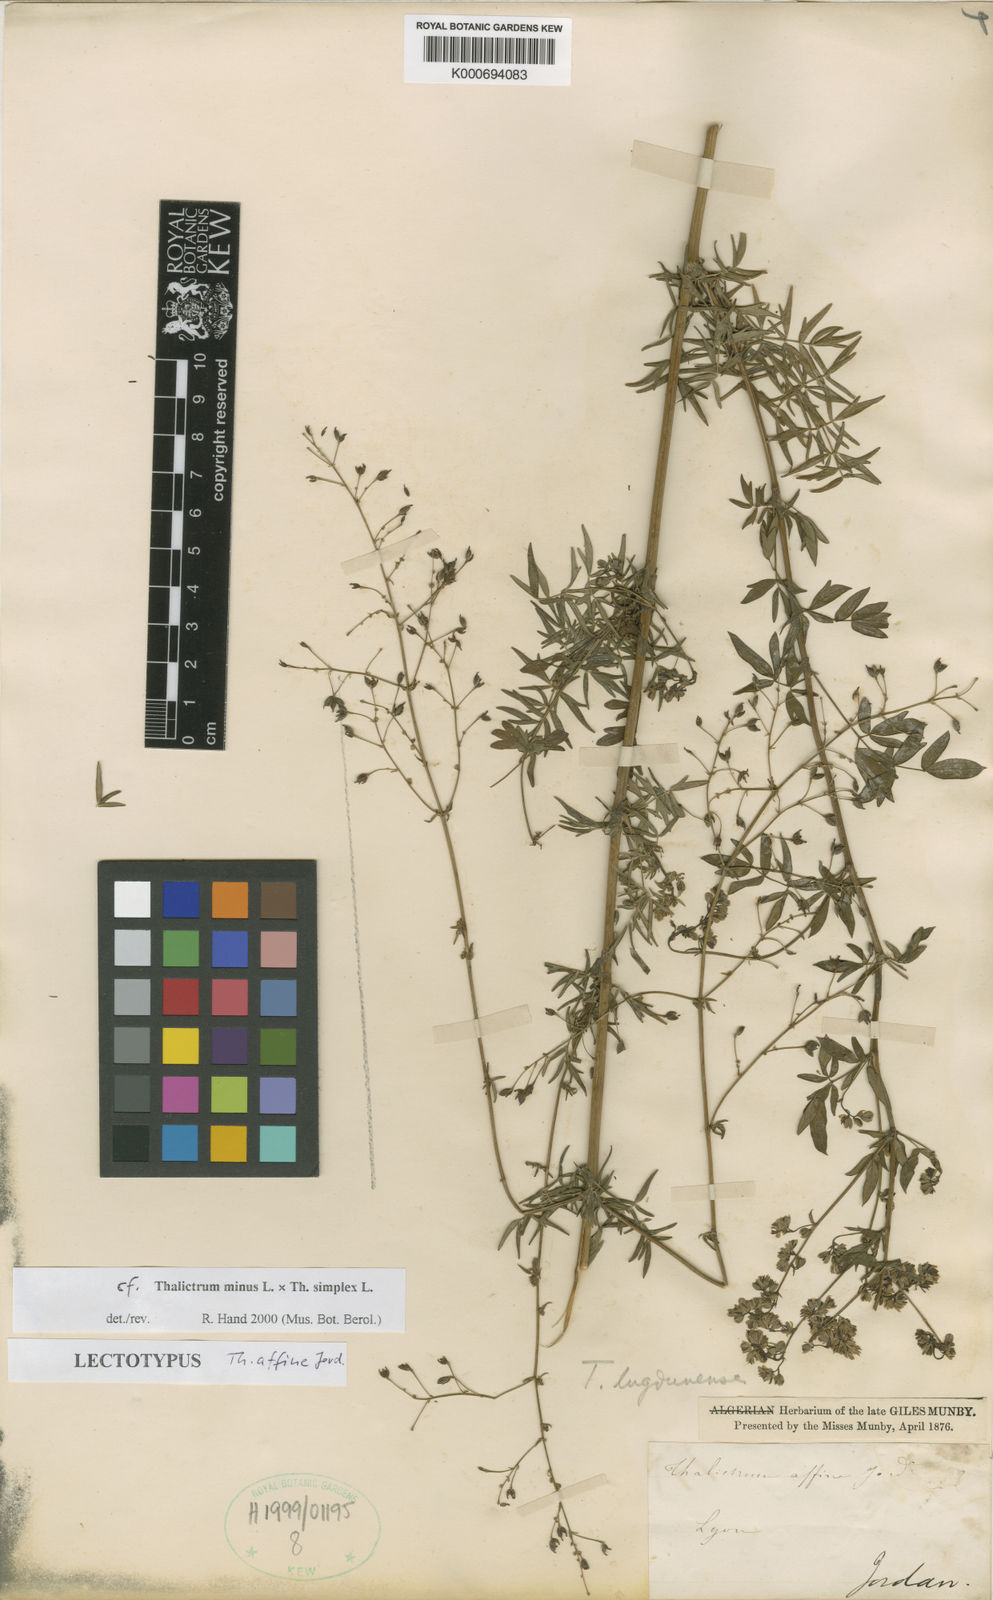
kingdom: Plantae
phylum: Tracheophyta
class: Magnoliopsida
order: Ranunculales
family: Ranunculaceae
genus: Thalictrum
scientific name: Thalictrum minus
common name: Lesser meadow-rue
